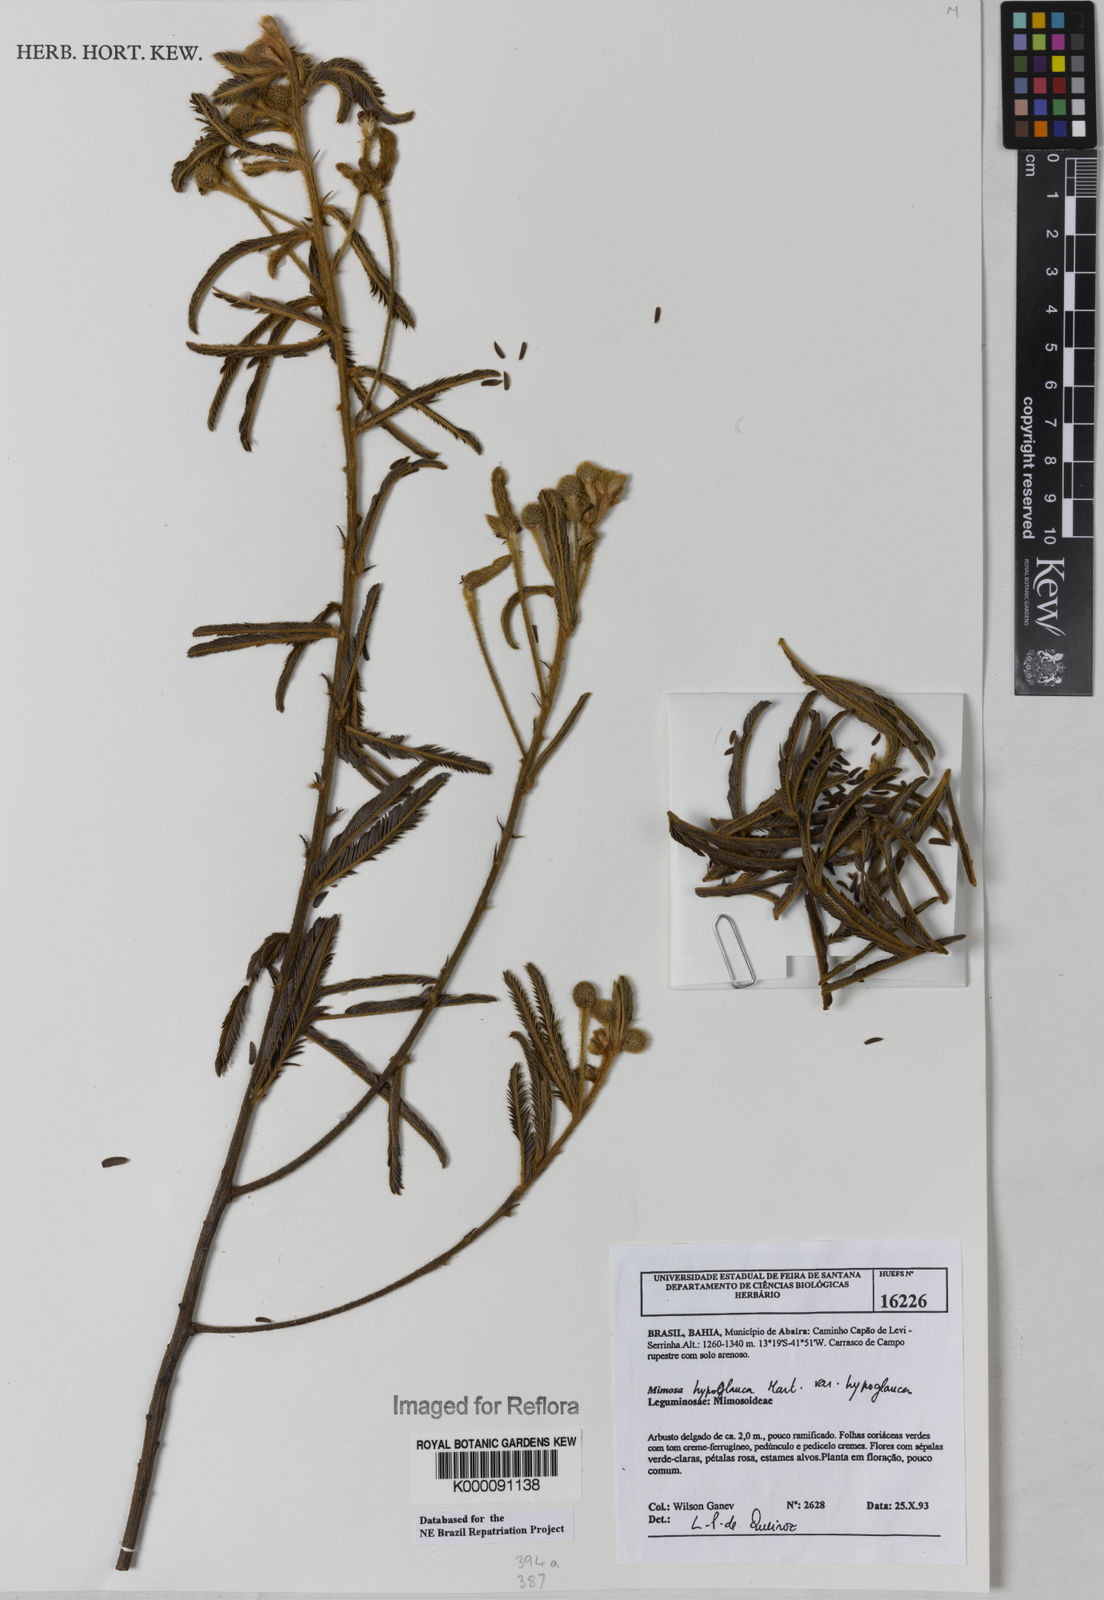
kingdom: Plantae
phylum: Tracheophyta
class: Magnoliopsida
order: Fabales
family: Fabaceae
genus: Mimosa
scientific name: Mimosa hypoglauca
